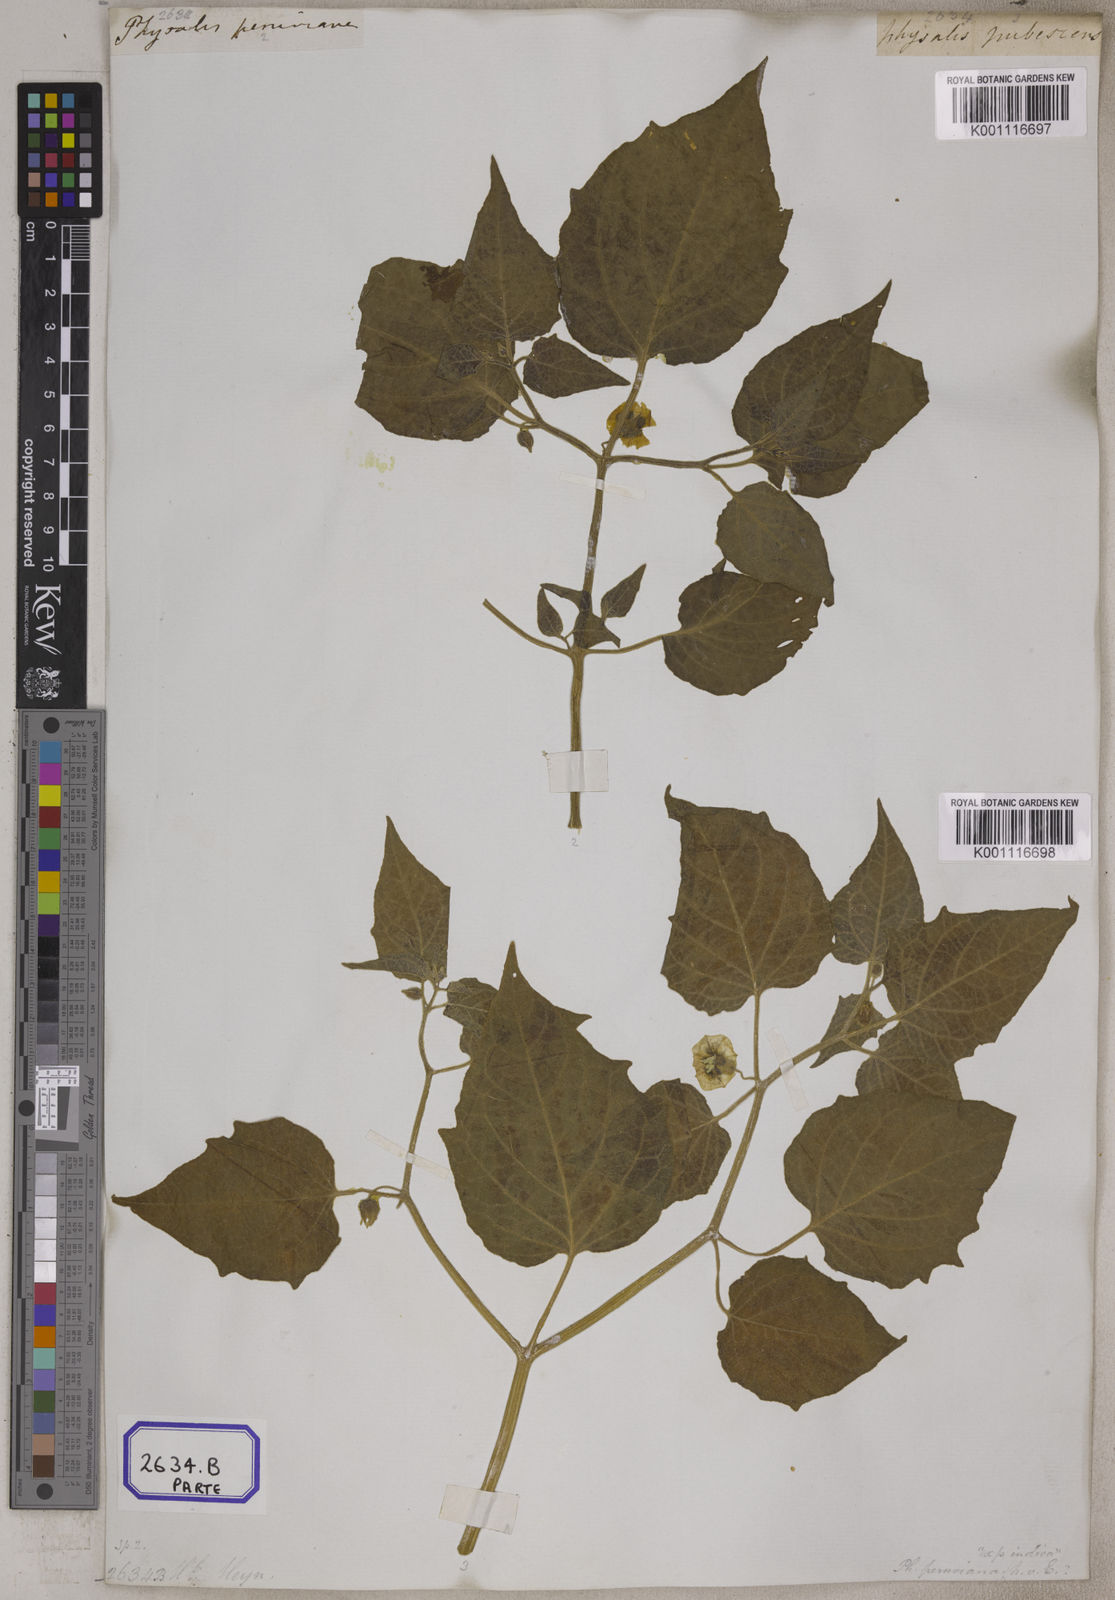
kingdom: Plantae
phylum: Tracheophyta
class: Magnoliopsida
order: Solanales
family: Solanaceae
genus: Physalis
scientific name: Physalis peruviana
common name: Cape-gooseberry
